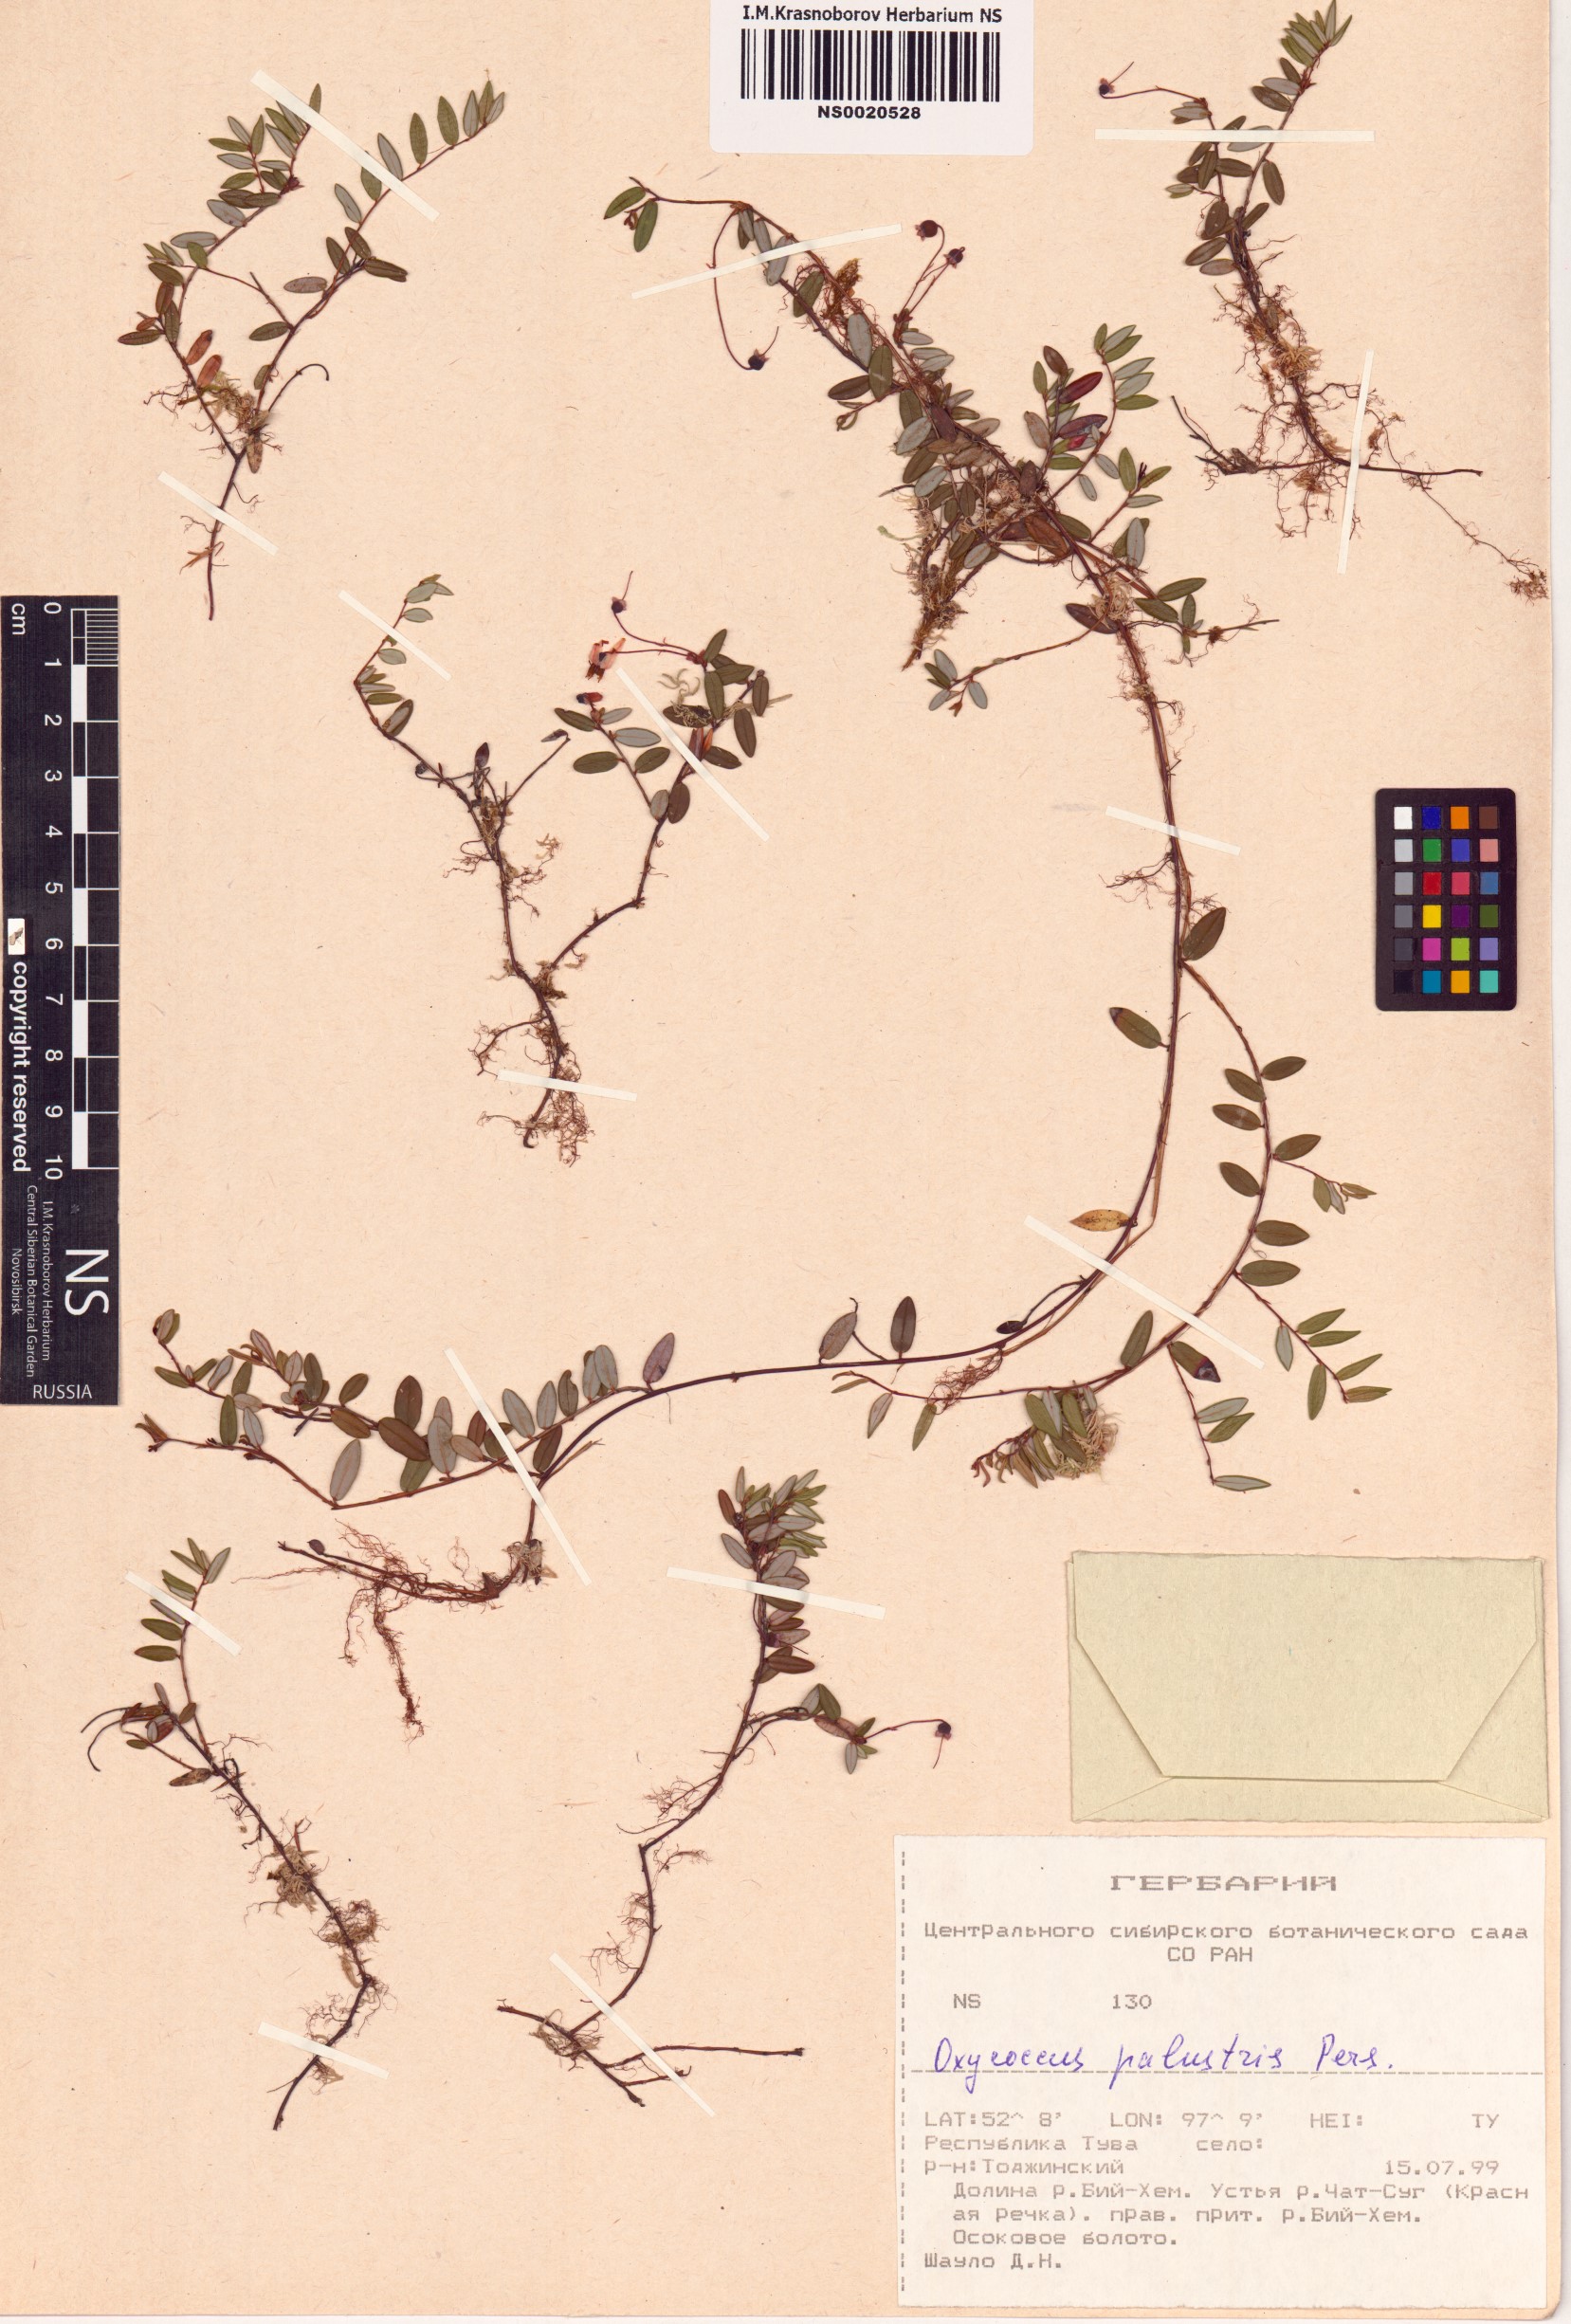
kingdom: Plantae
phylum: Tracheophyta
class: Magnoliopsida
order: Ericales
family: Ericaceae
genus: Vaccinium
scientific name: Vaccinium oxycoccos
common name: Cranberry
